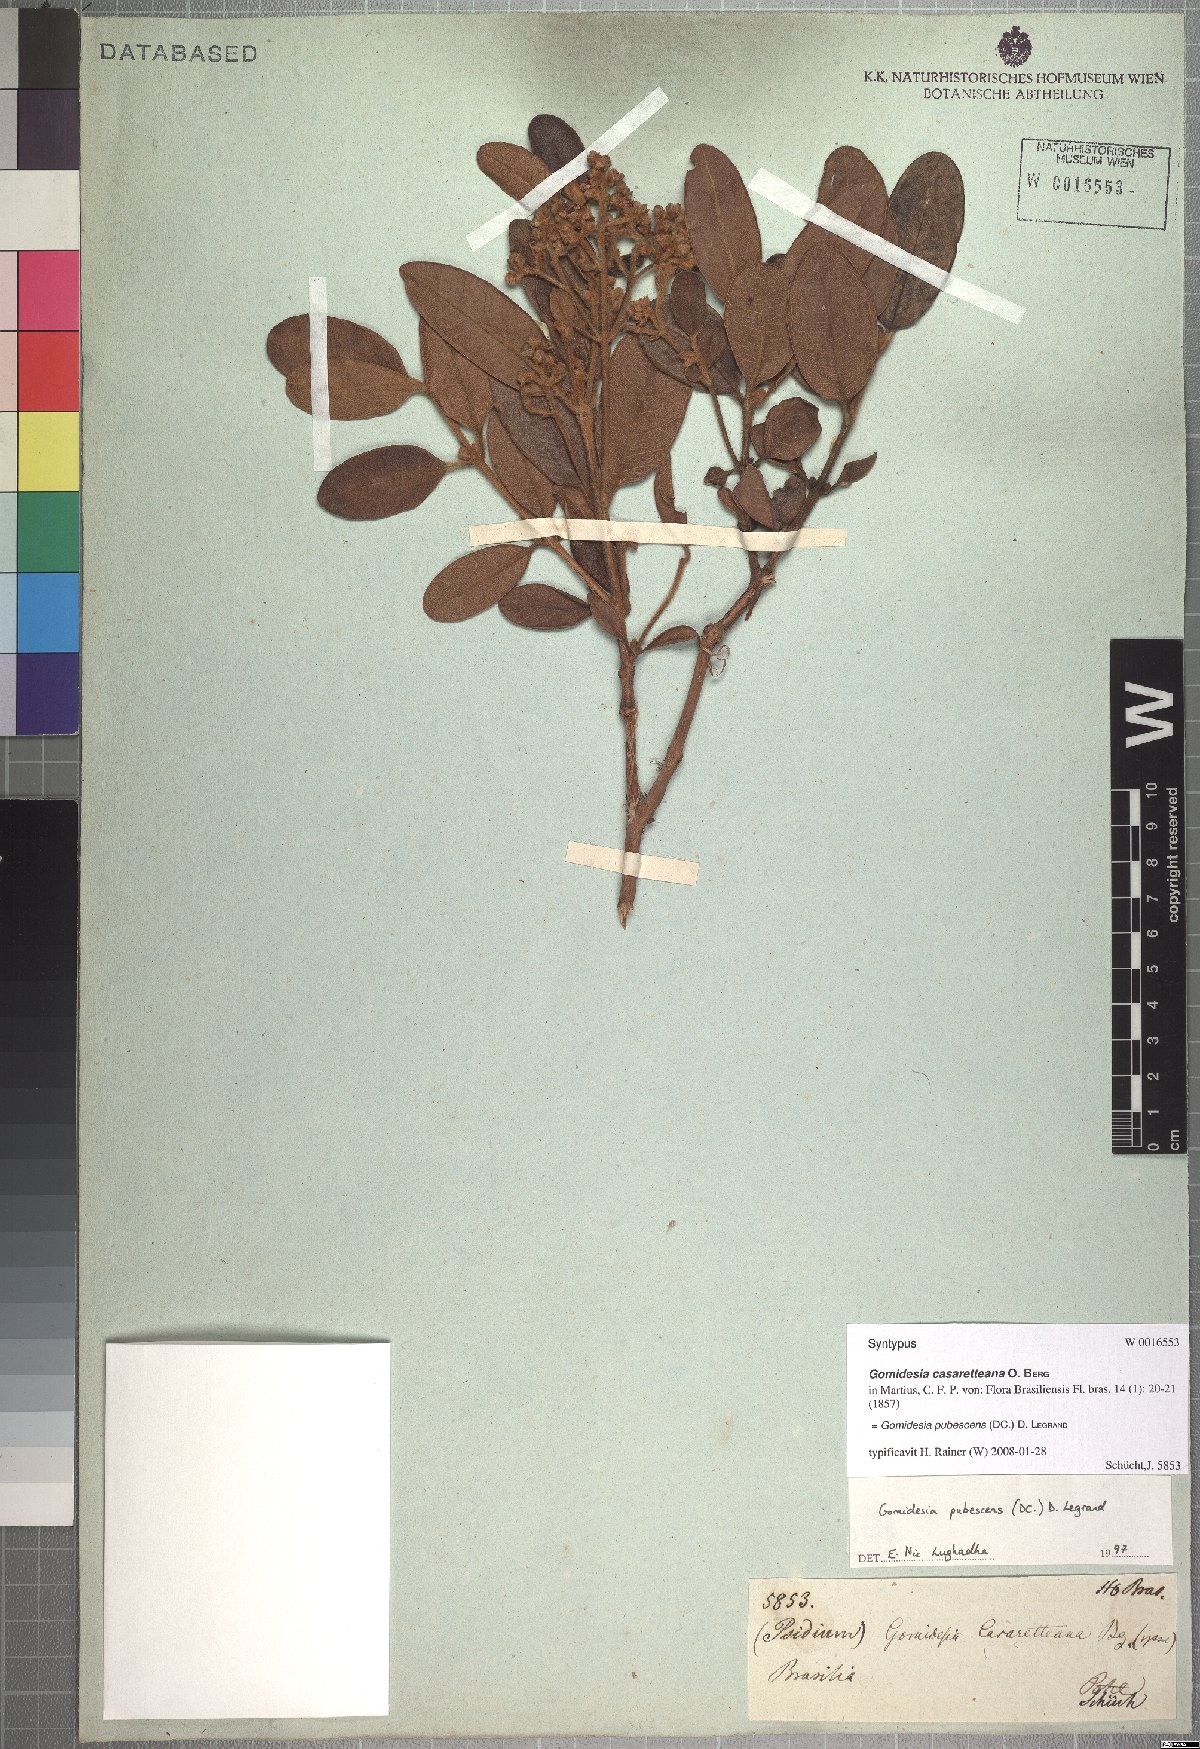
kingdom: Plantae
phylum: Tracheophyta
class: Magnoliopsida
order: Myrtales
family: Myrtaceae
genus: Myrcia
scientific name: Myrcia pubescens
